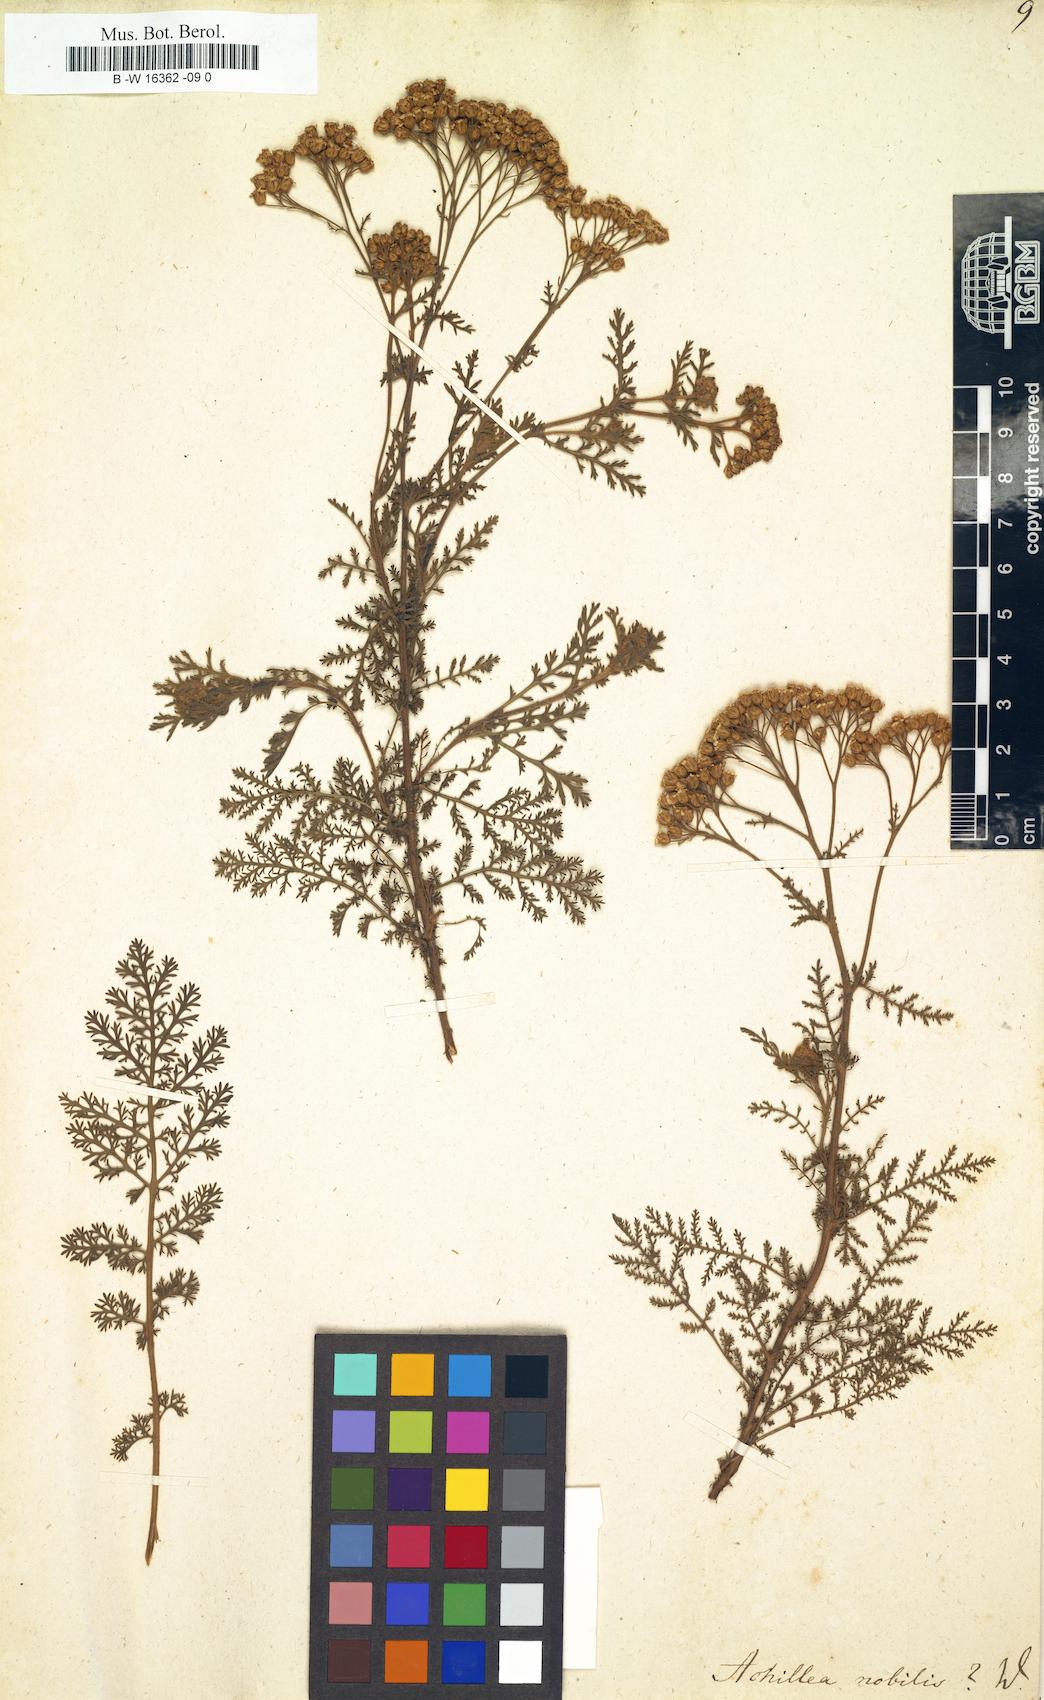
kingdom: Plantae
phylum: Tracheophyta
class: Magnoliopsida
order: Asterales
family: Asteraceae
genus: Achillea
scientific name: Achillea nobilis
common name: Noble yarrow
